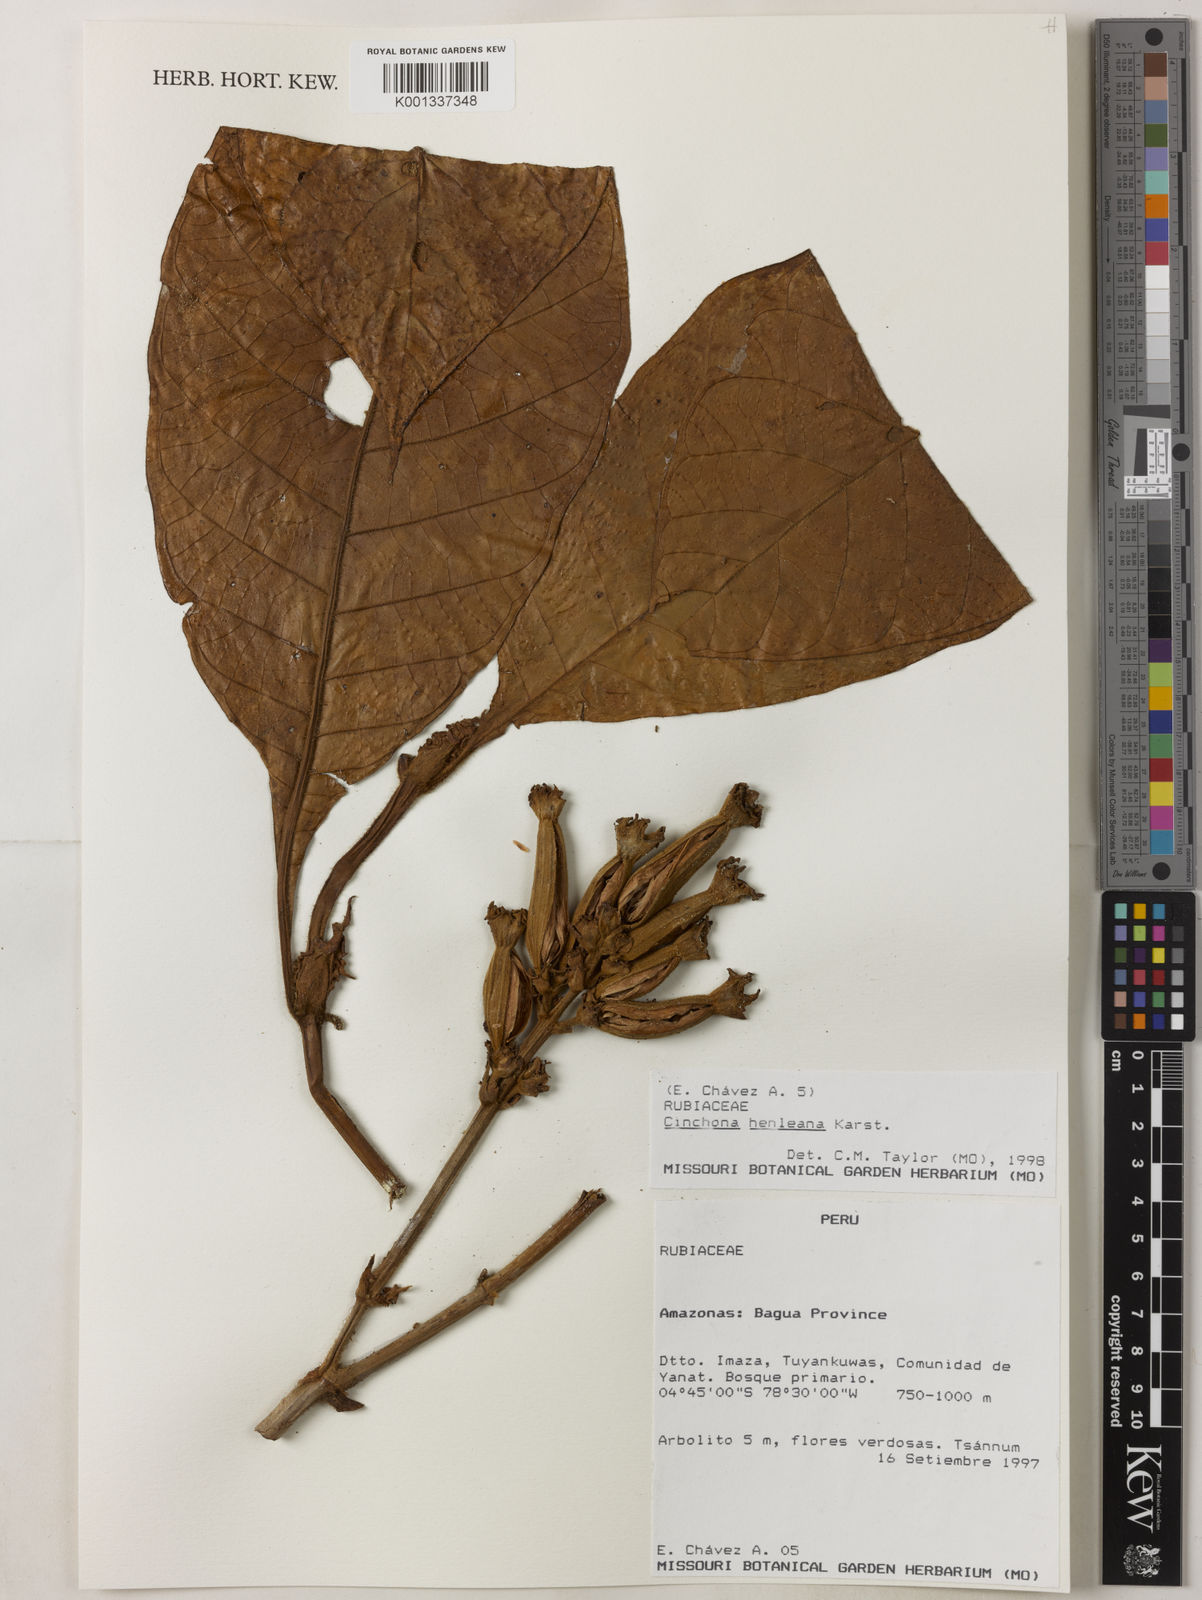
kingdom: Plantae
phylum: Tracheophyta
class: Magnoliopsida
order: Gentianales
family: Rubiaceae
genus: Ladenbergia
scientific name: Ladenbergia muzonensis
